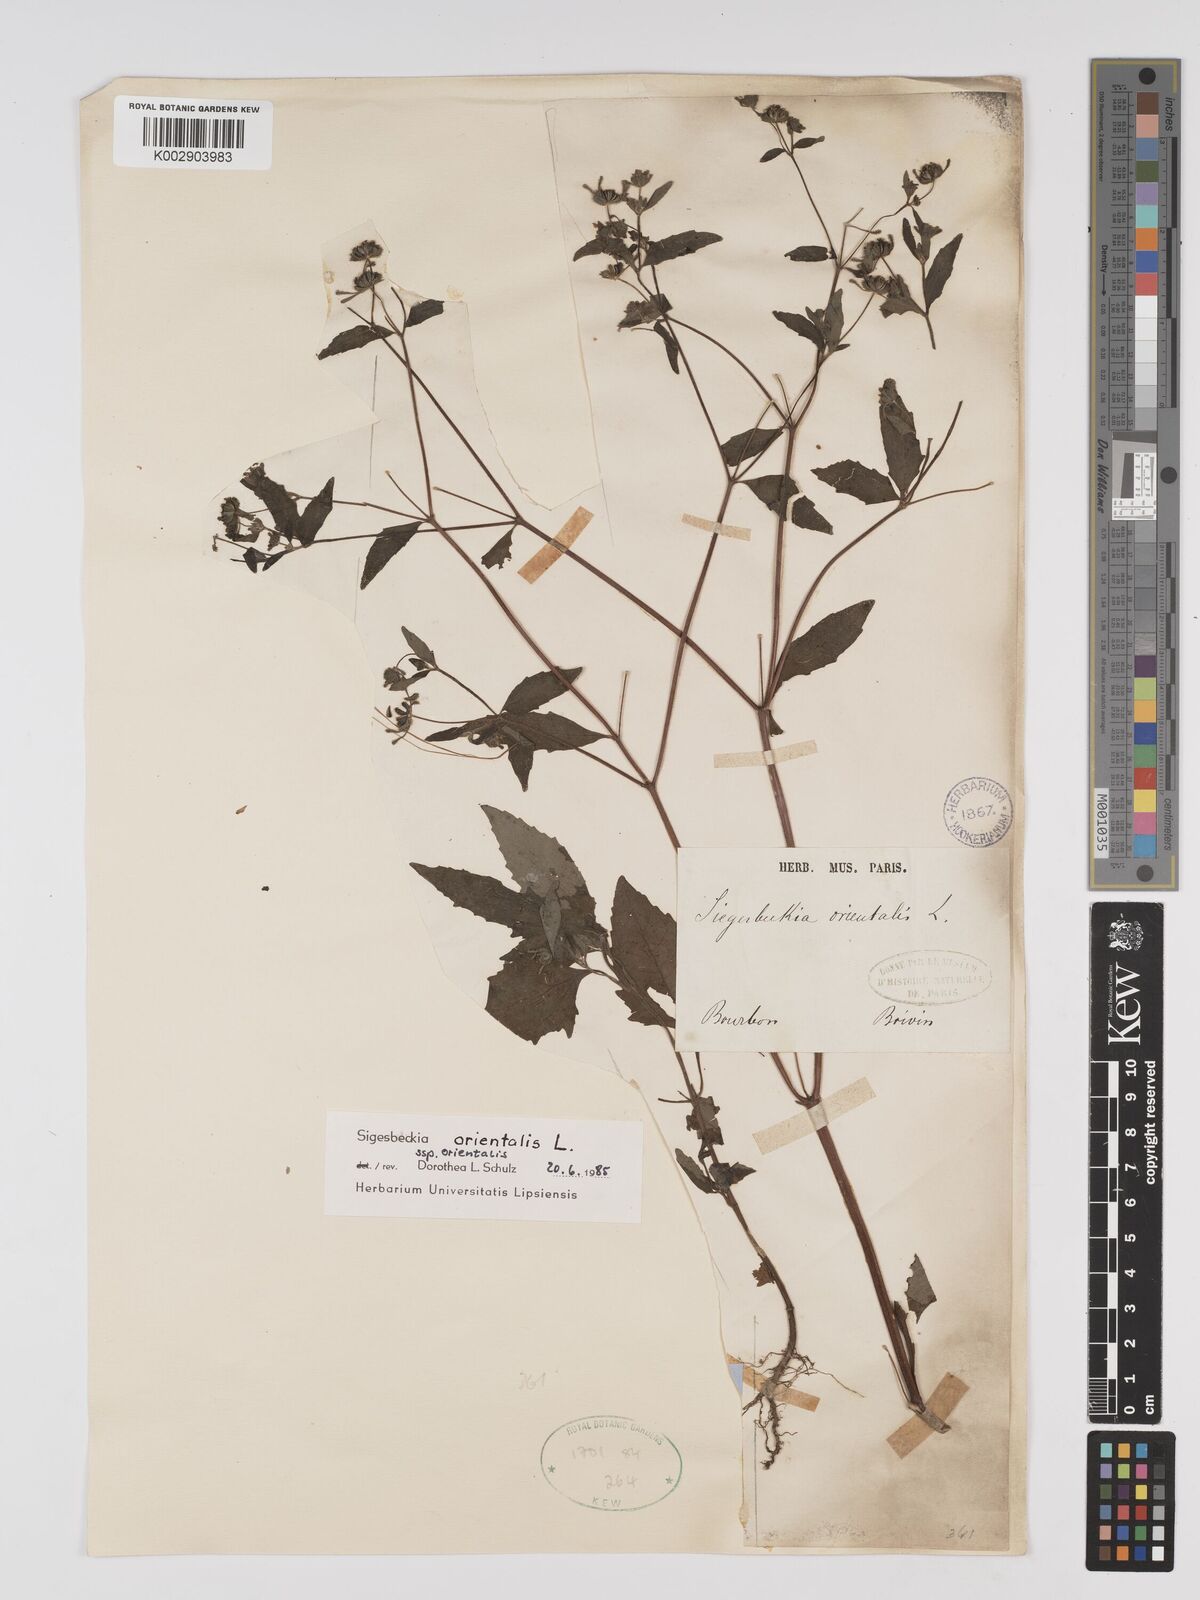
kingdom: Plantae
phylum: Tracheophyta
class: Magnoliopsida
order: Asterales
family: Asteraceae
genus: Sigesbeckia
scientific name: Sigesbeckia orientalis
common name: Eastern st paul's-wort
